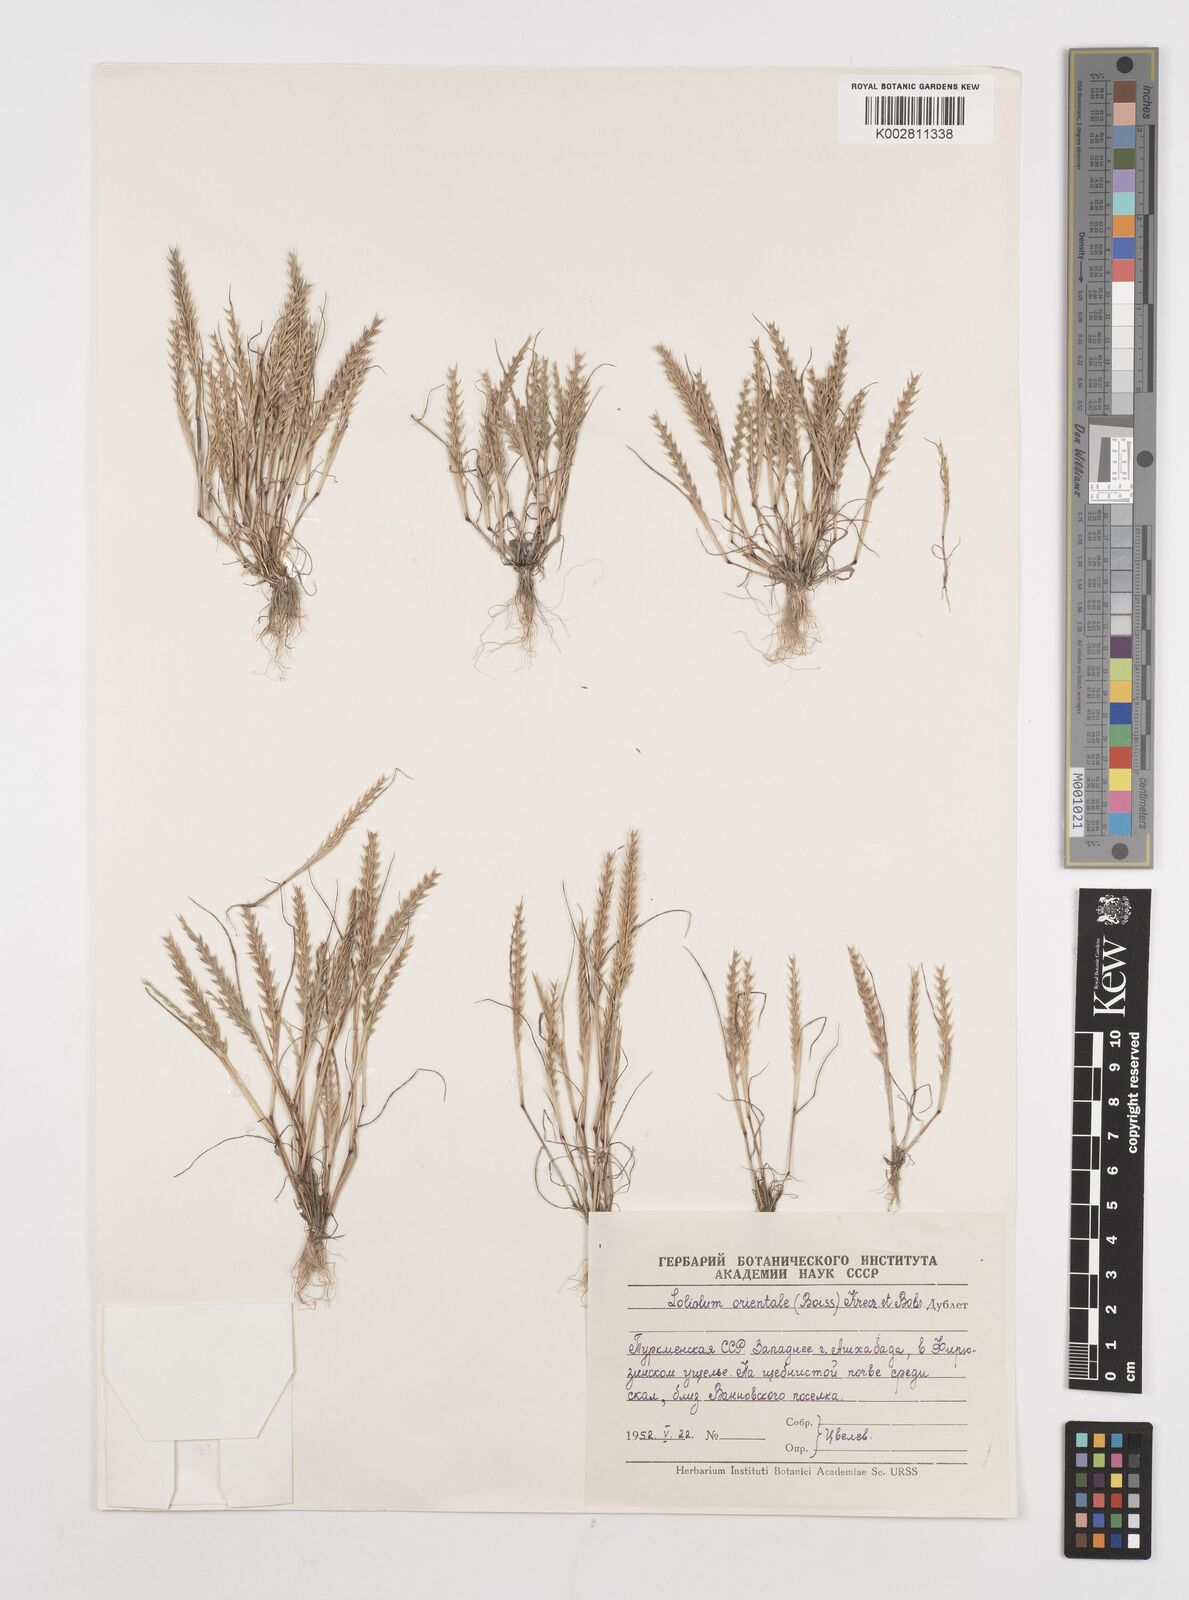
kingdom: Plantae
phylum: Tracheophyta
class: Liliopsida
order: Poales
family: Poaceae
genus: Festuca
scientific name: Festuca orientalis
